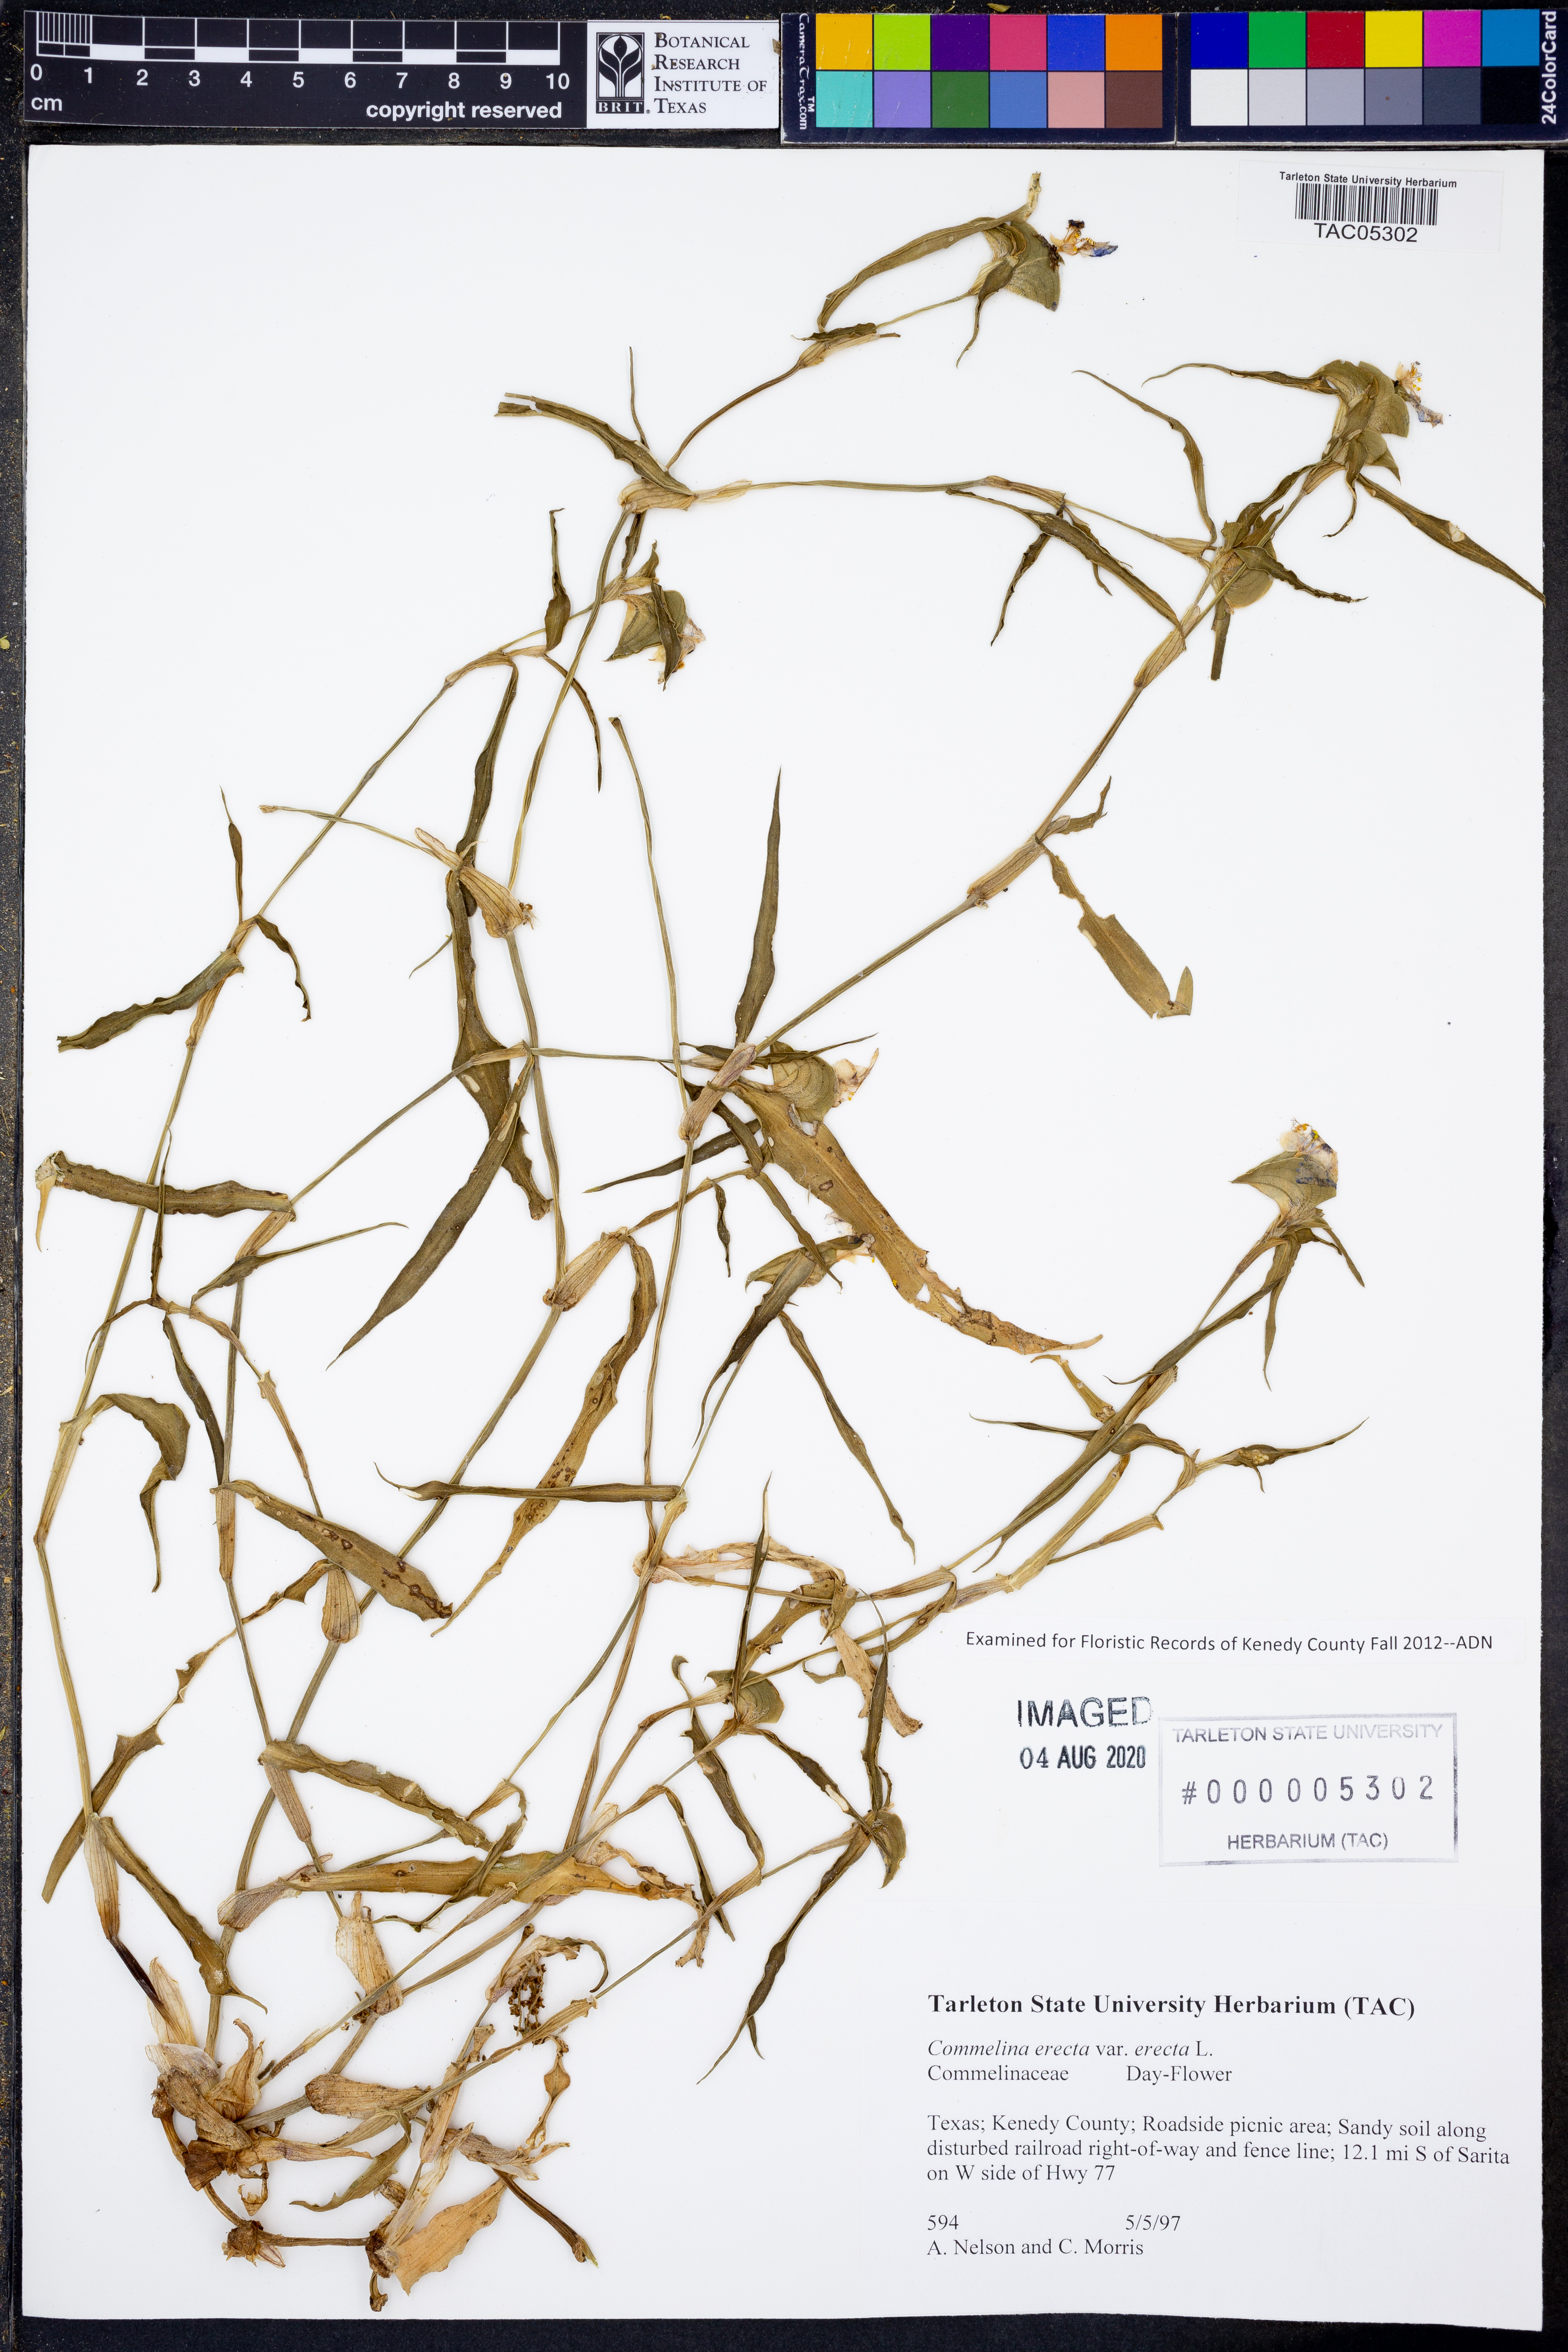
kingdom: Plantae
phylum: Tracheophyta
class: Liliopsida
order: Commelinales
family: Commelinaceae
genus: Commelina
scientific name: Commelina erecta
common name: Blousel blommetjie
